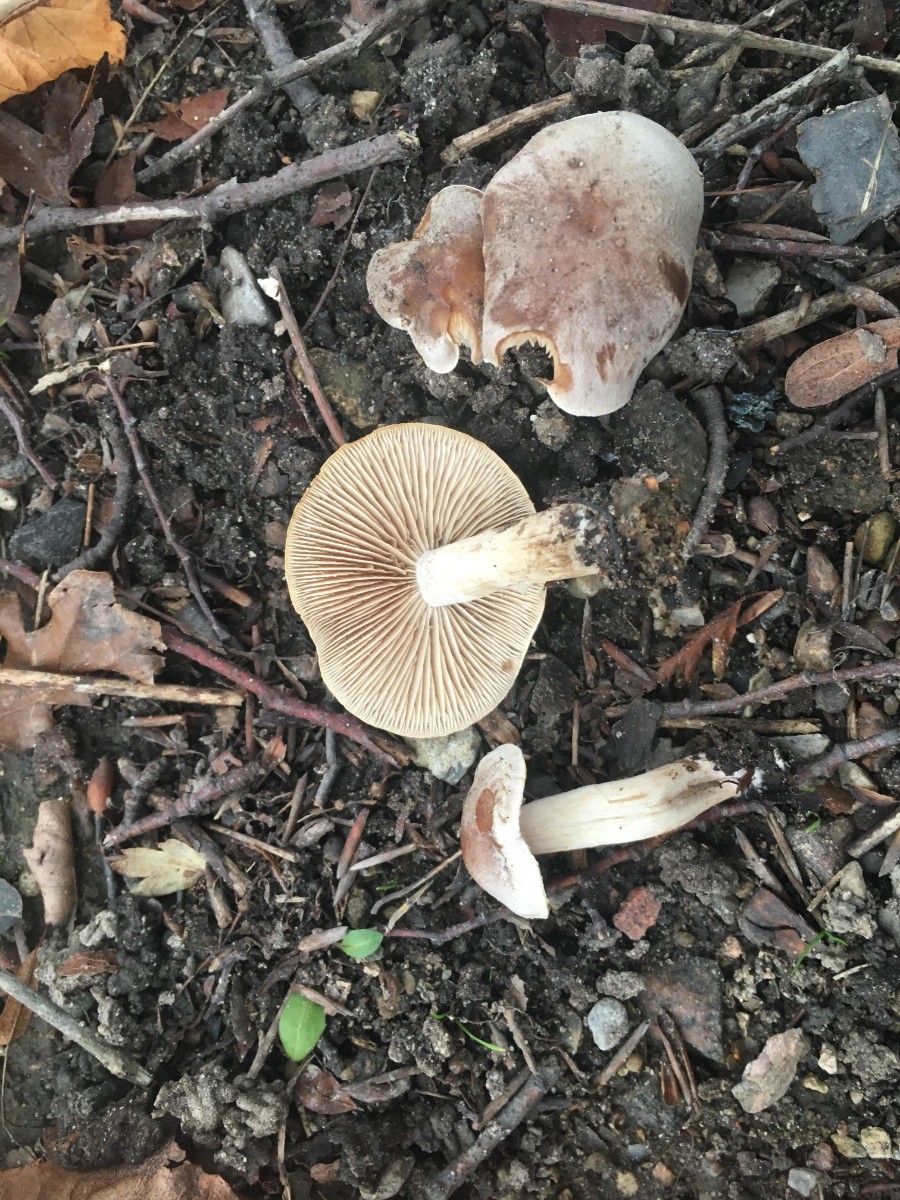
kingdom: Fungi
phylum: Basidiomycota
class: Agaricomycetes
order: Agaricales
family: Hymenogastraceae
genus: Hebeloma
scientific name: Hebeloma
